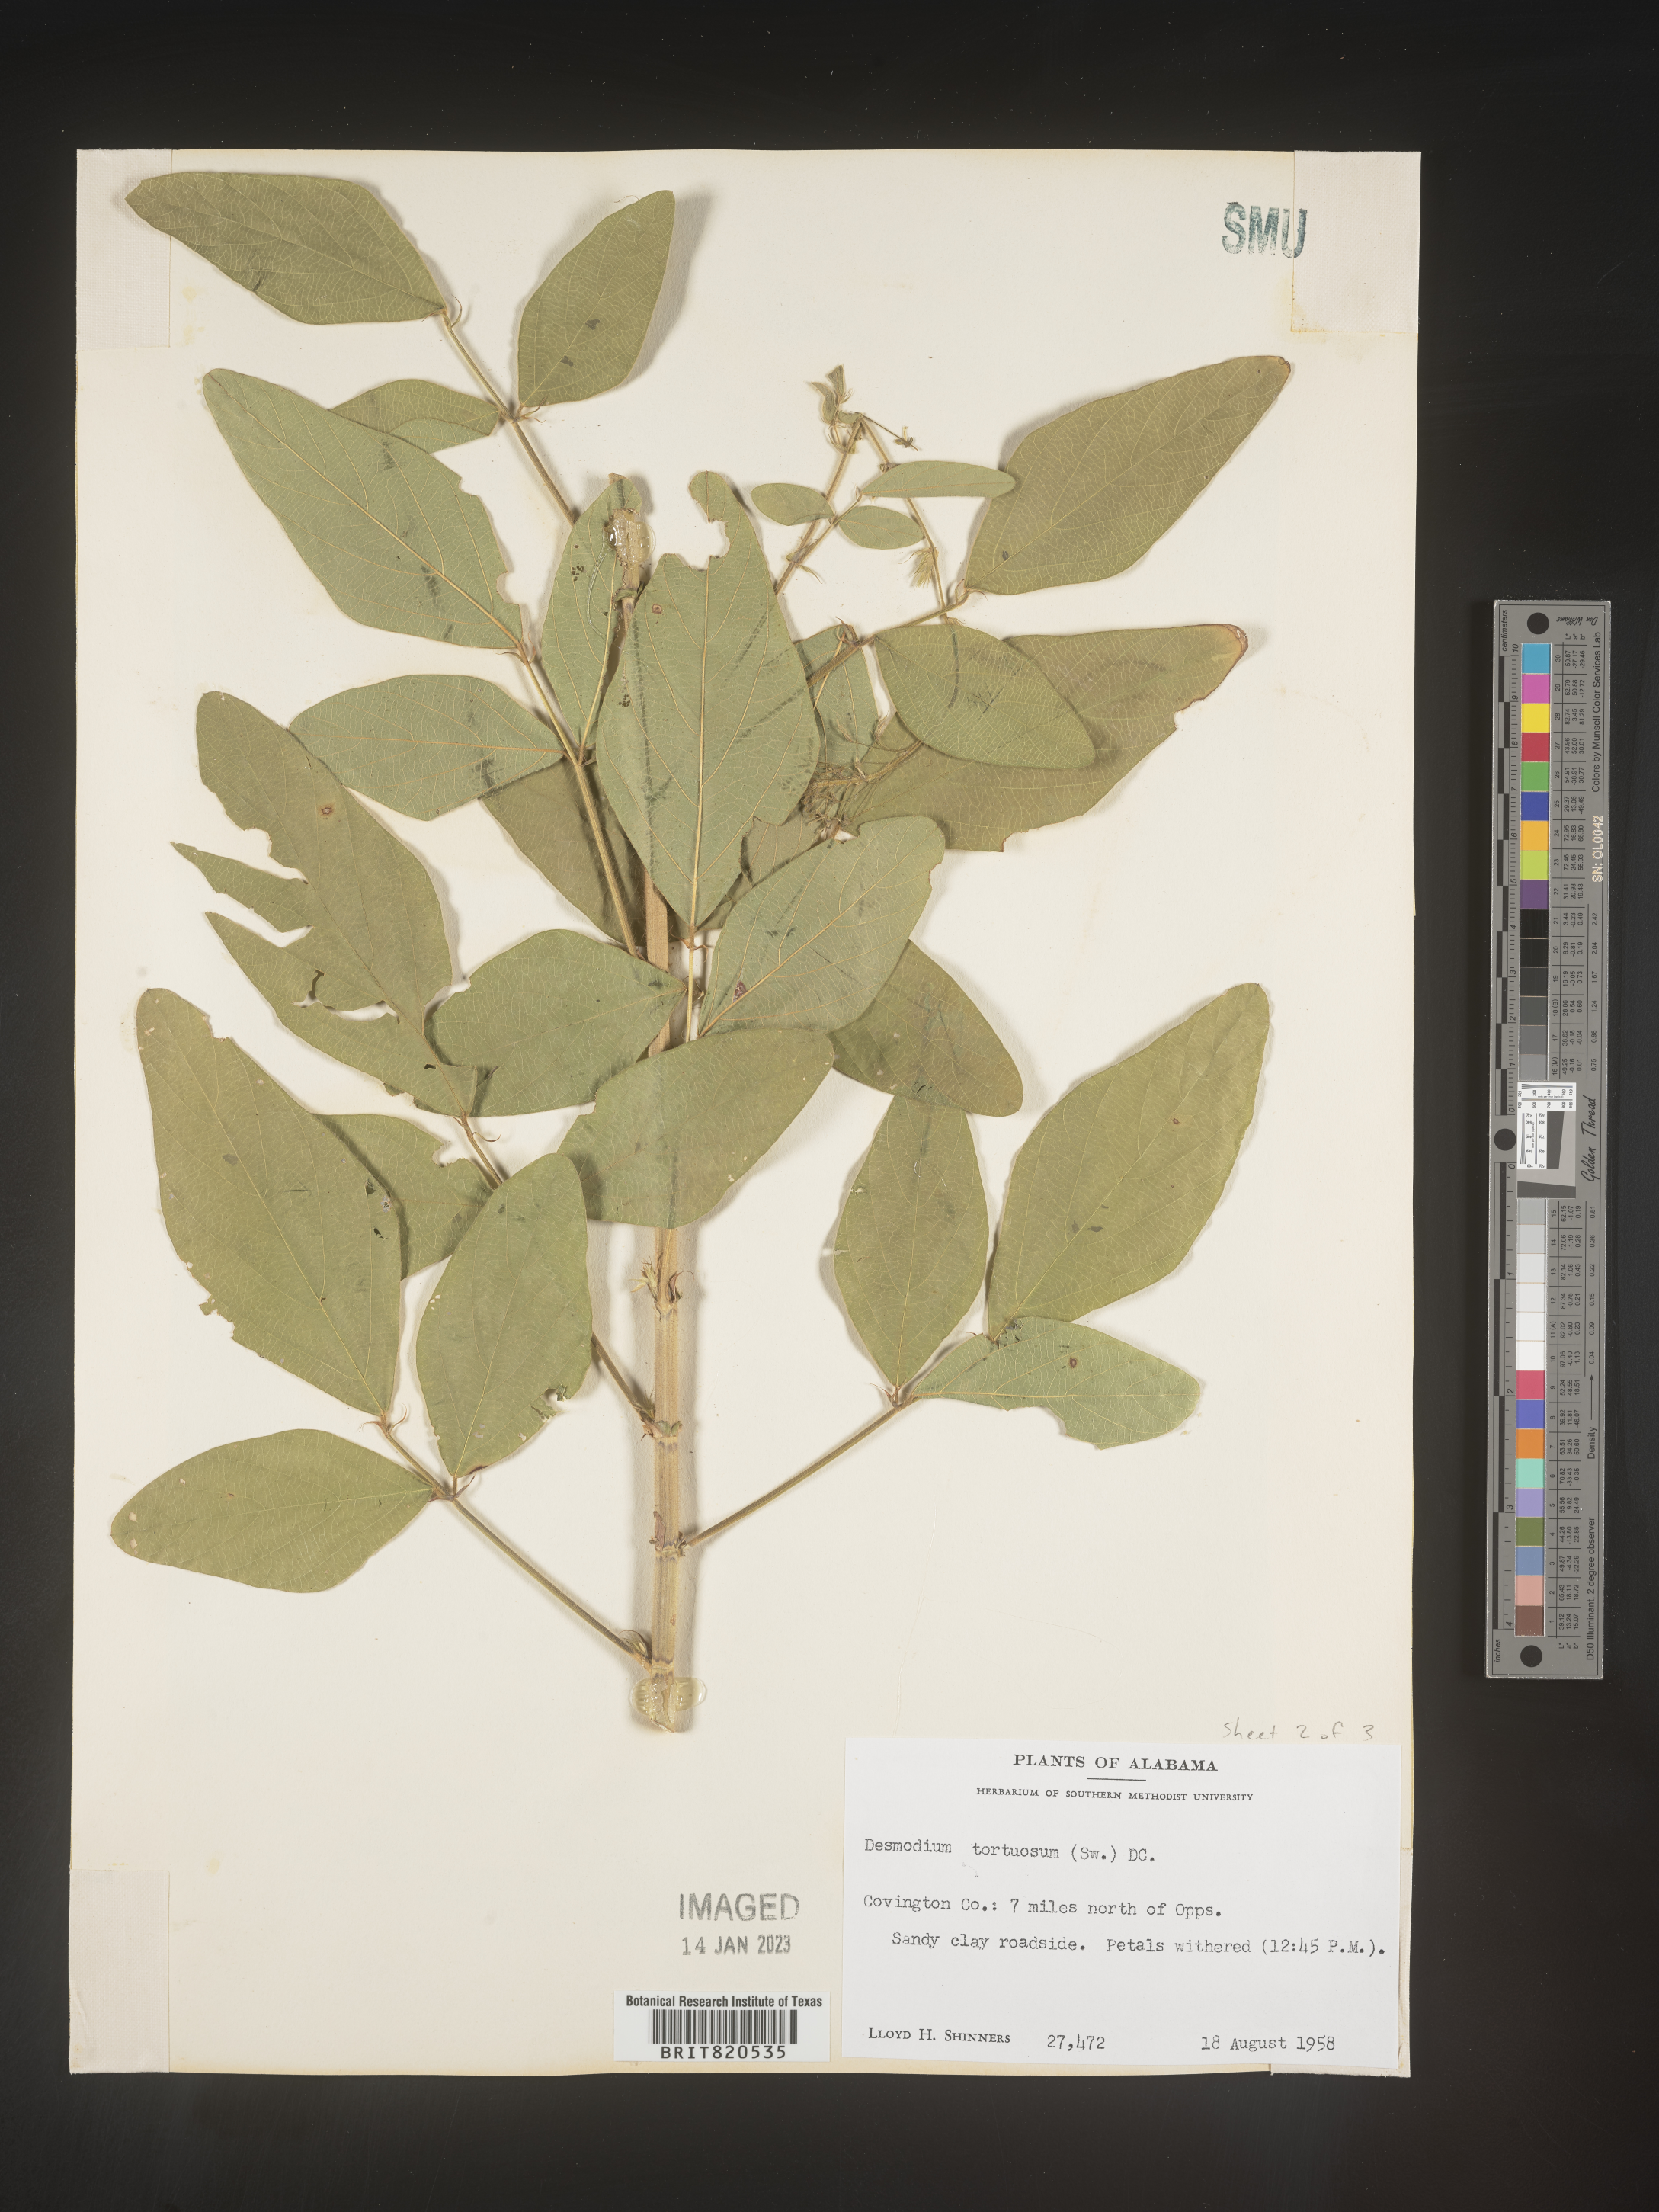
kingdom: Plantae
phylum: Tracheophyta
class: Magnoliopsida
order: Fabales
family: Fabaceae
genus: Desmodium
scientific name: Desmodium tortuosum
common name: Dixie ticktrefoil
